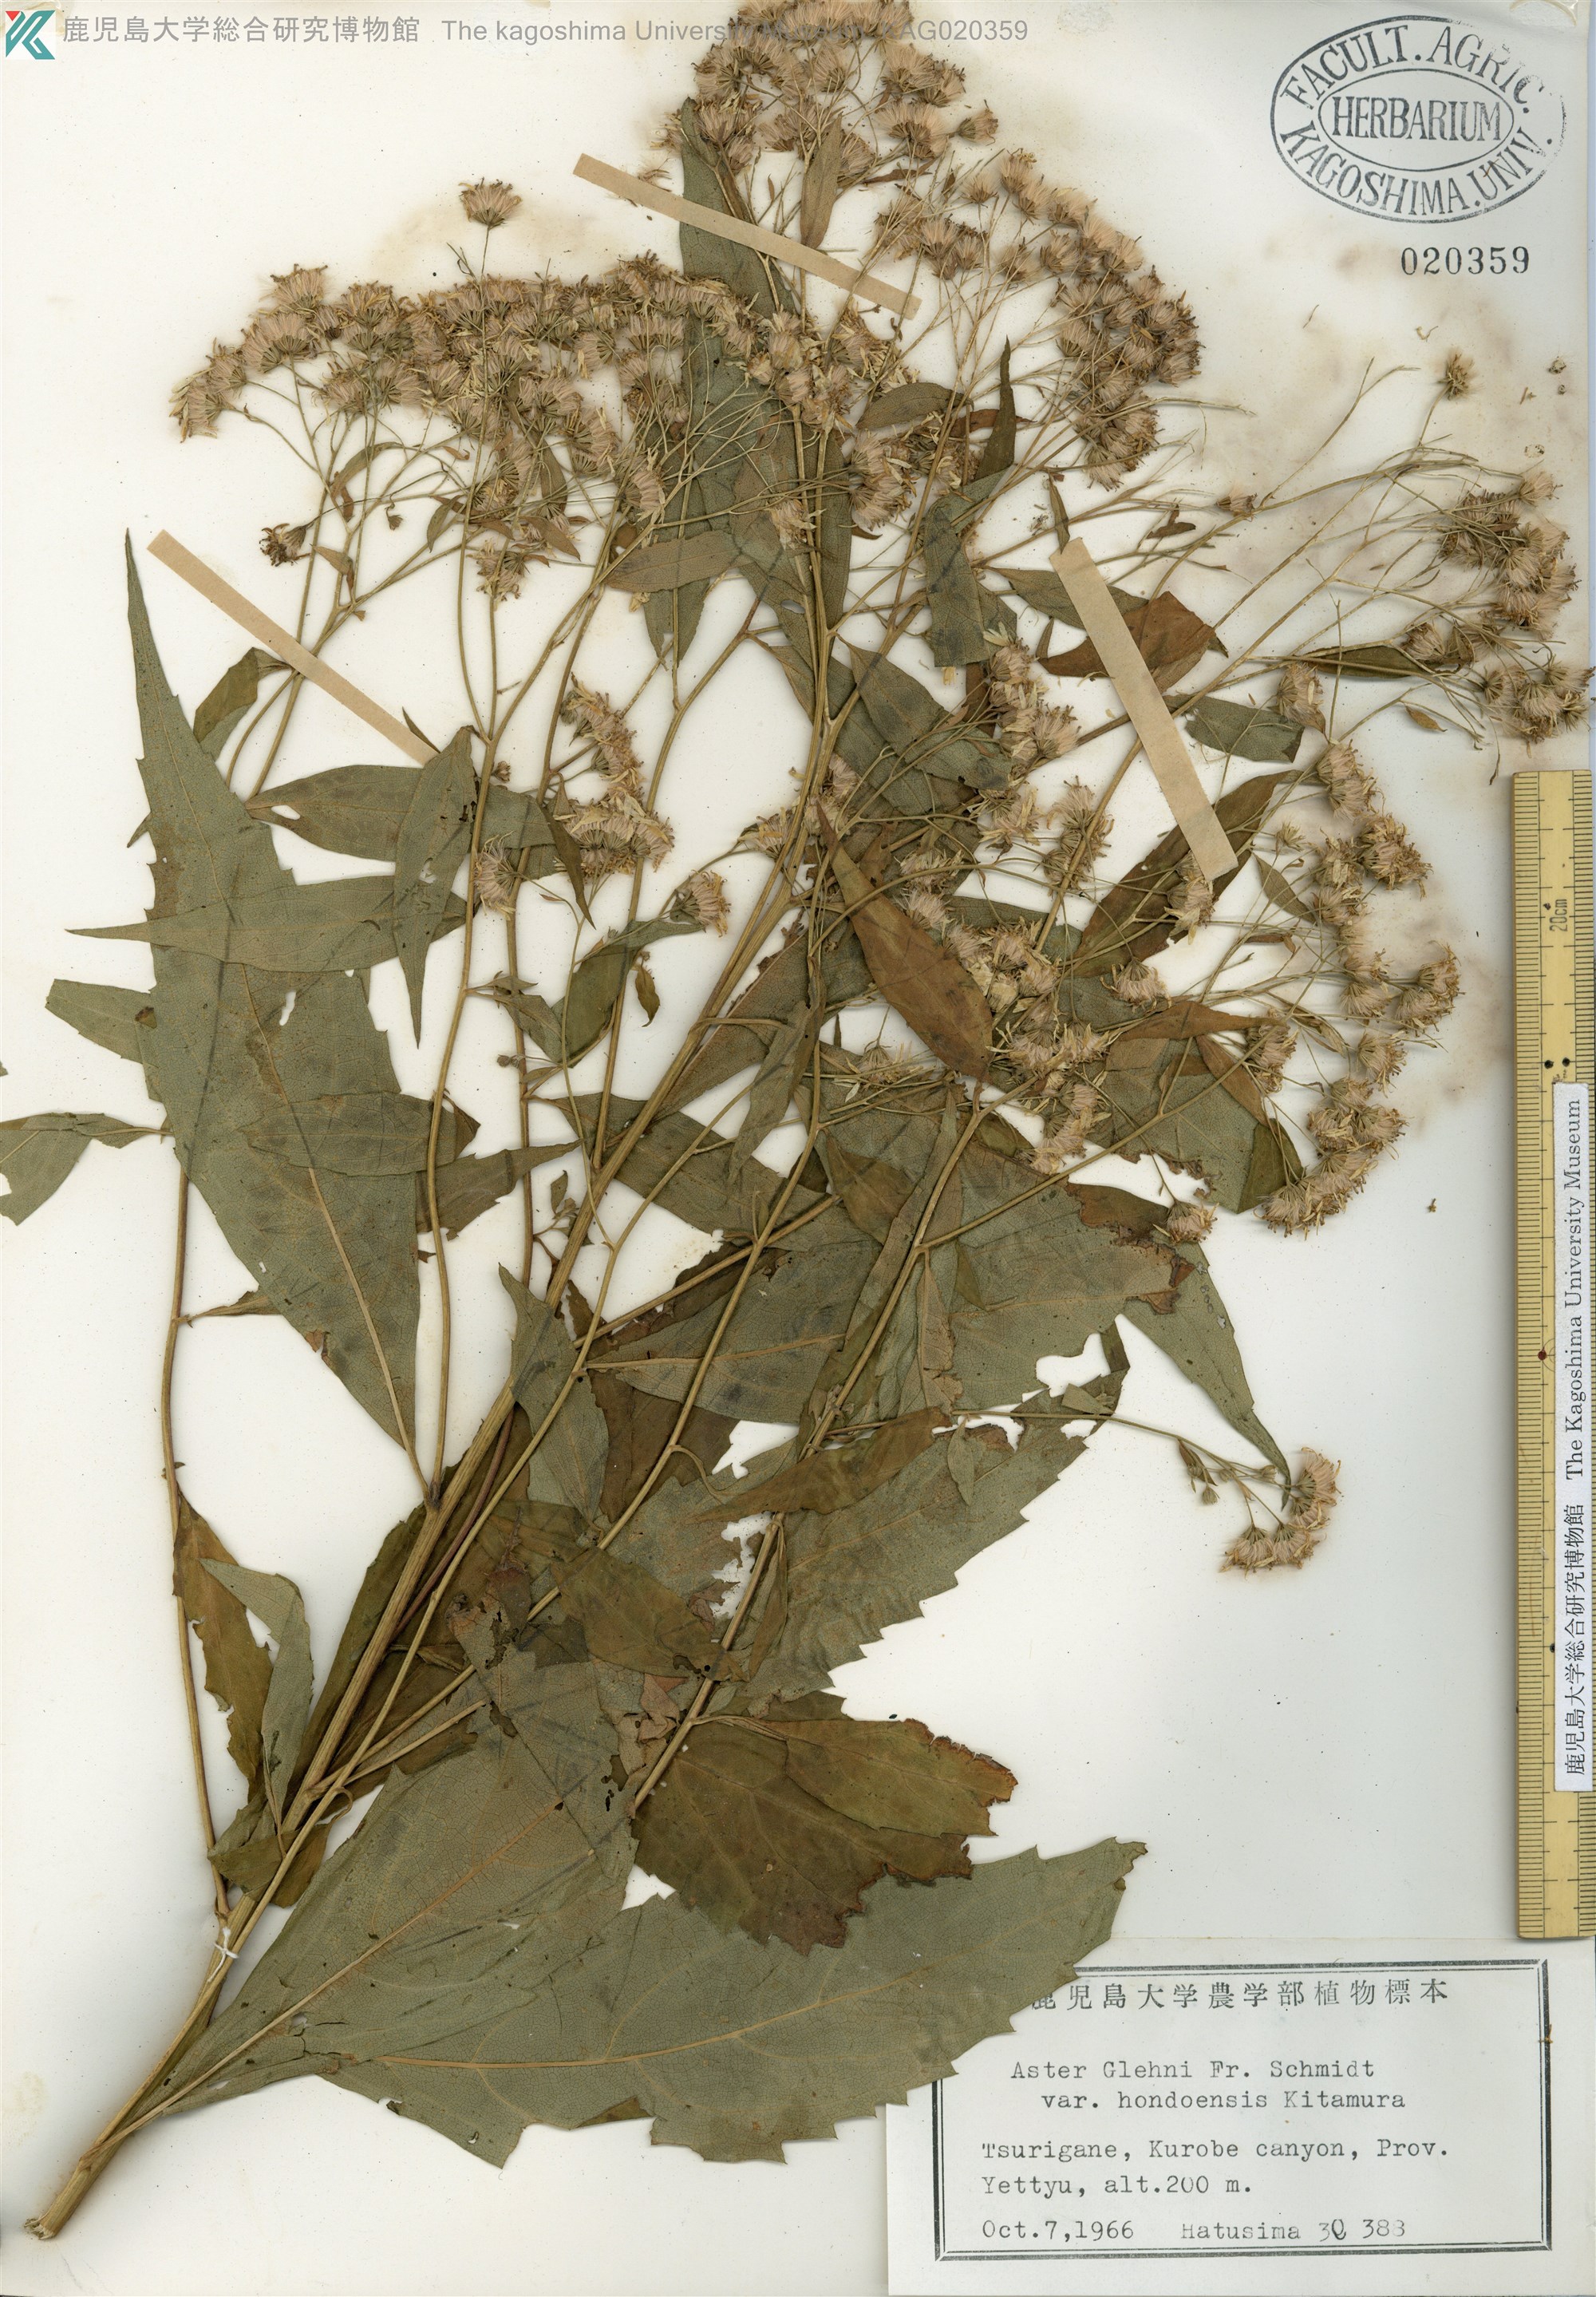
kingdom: Plantae
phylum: Tracheophyta
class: Magnoliopsida
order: Asterales
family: Asteraceae
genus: Kitamuria
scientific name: Kitamuria glehnii
